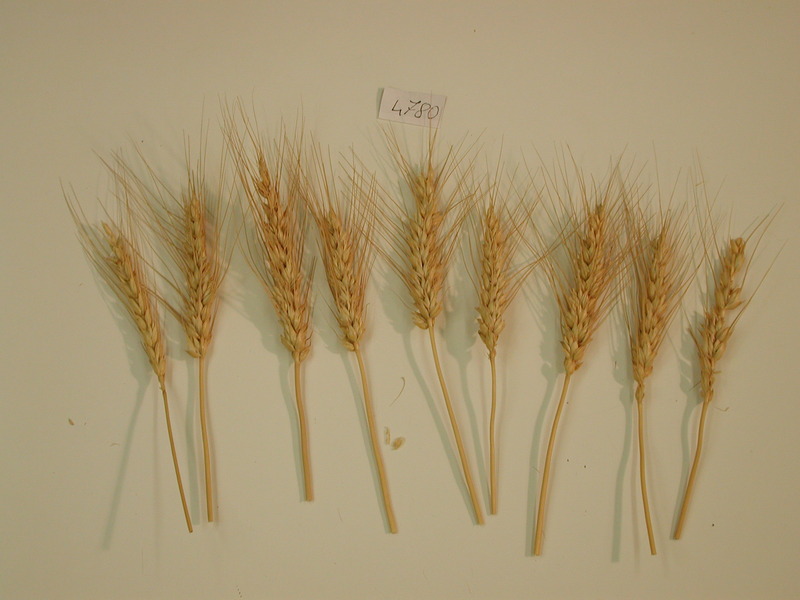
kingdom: Plantae
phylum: Tracheophyta
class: Liliopsida
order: Poales
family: Poaceae
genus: Triticum
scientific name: Triticum aestivum
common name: Wheat
